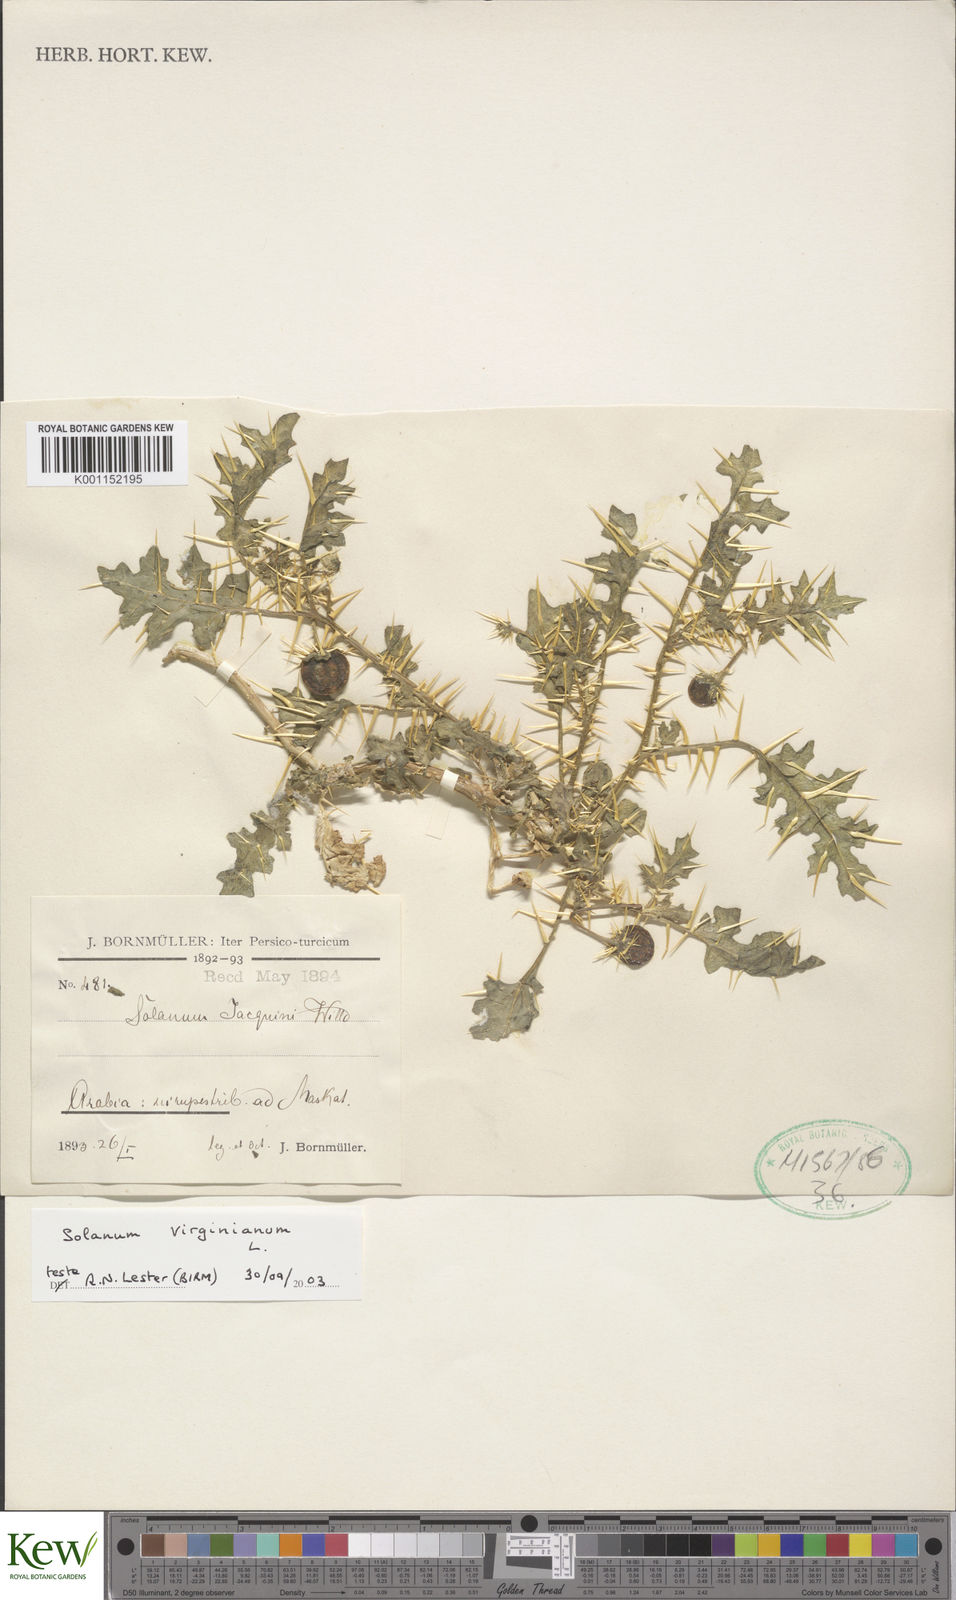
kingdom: Plantae
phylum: Tracheophyta
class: Magnoliopsida
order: Solanales
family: Solanaceae
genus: Solanum
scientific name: Solanum virginianum
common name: Surattense nightshade
